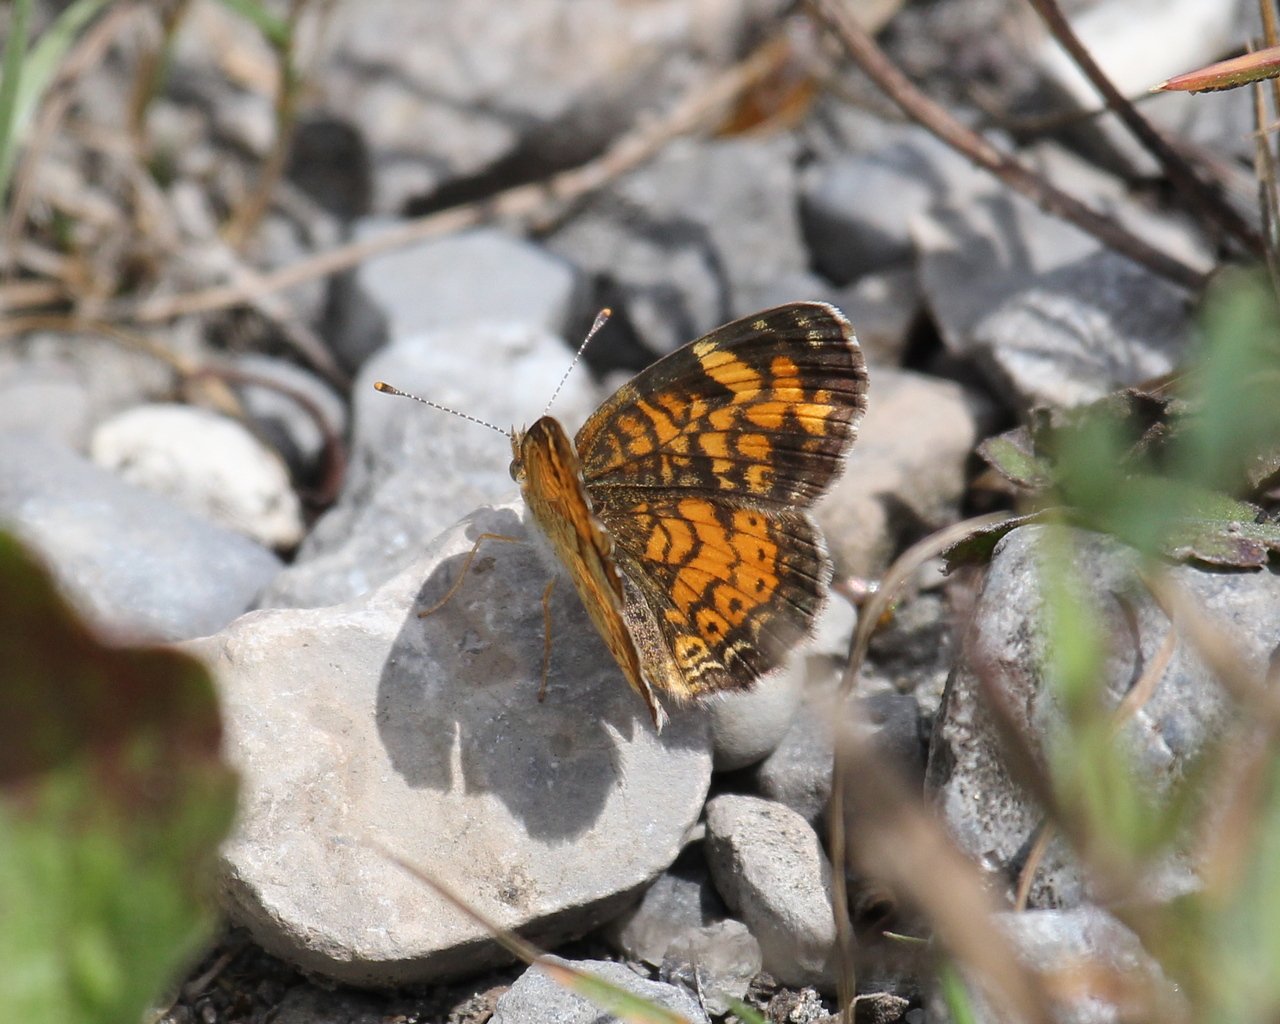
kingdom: Animalia
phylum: Arthropoda
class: Insecta
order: Lepidoptera
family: Nymphalidae
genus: Phyciodes
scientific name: Phyciodes tharos
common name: Northern Crescent
